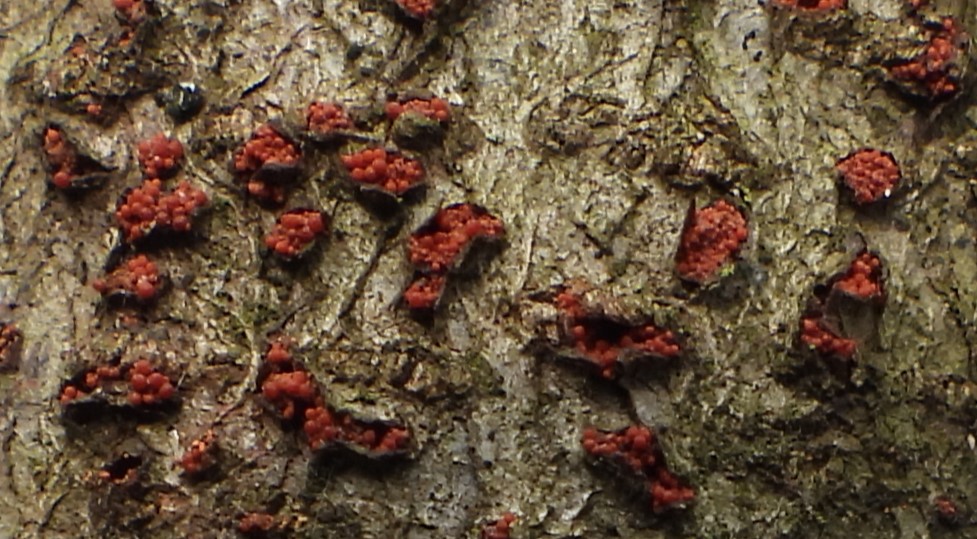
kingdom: Fungi
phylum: Ascomycota
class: Sordariomycetes
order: Hypocreales
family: Nectriaceae
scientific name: Nectriaceae
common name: cinnobersvampfamilien
